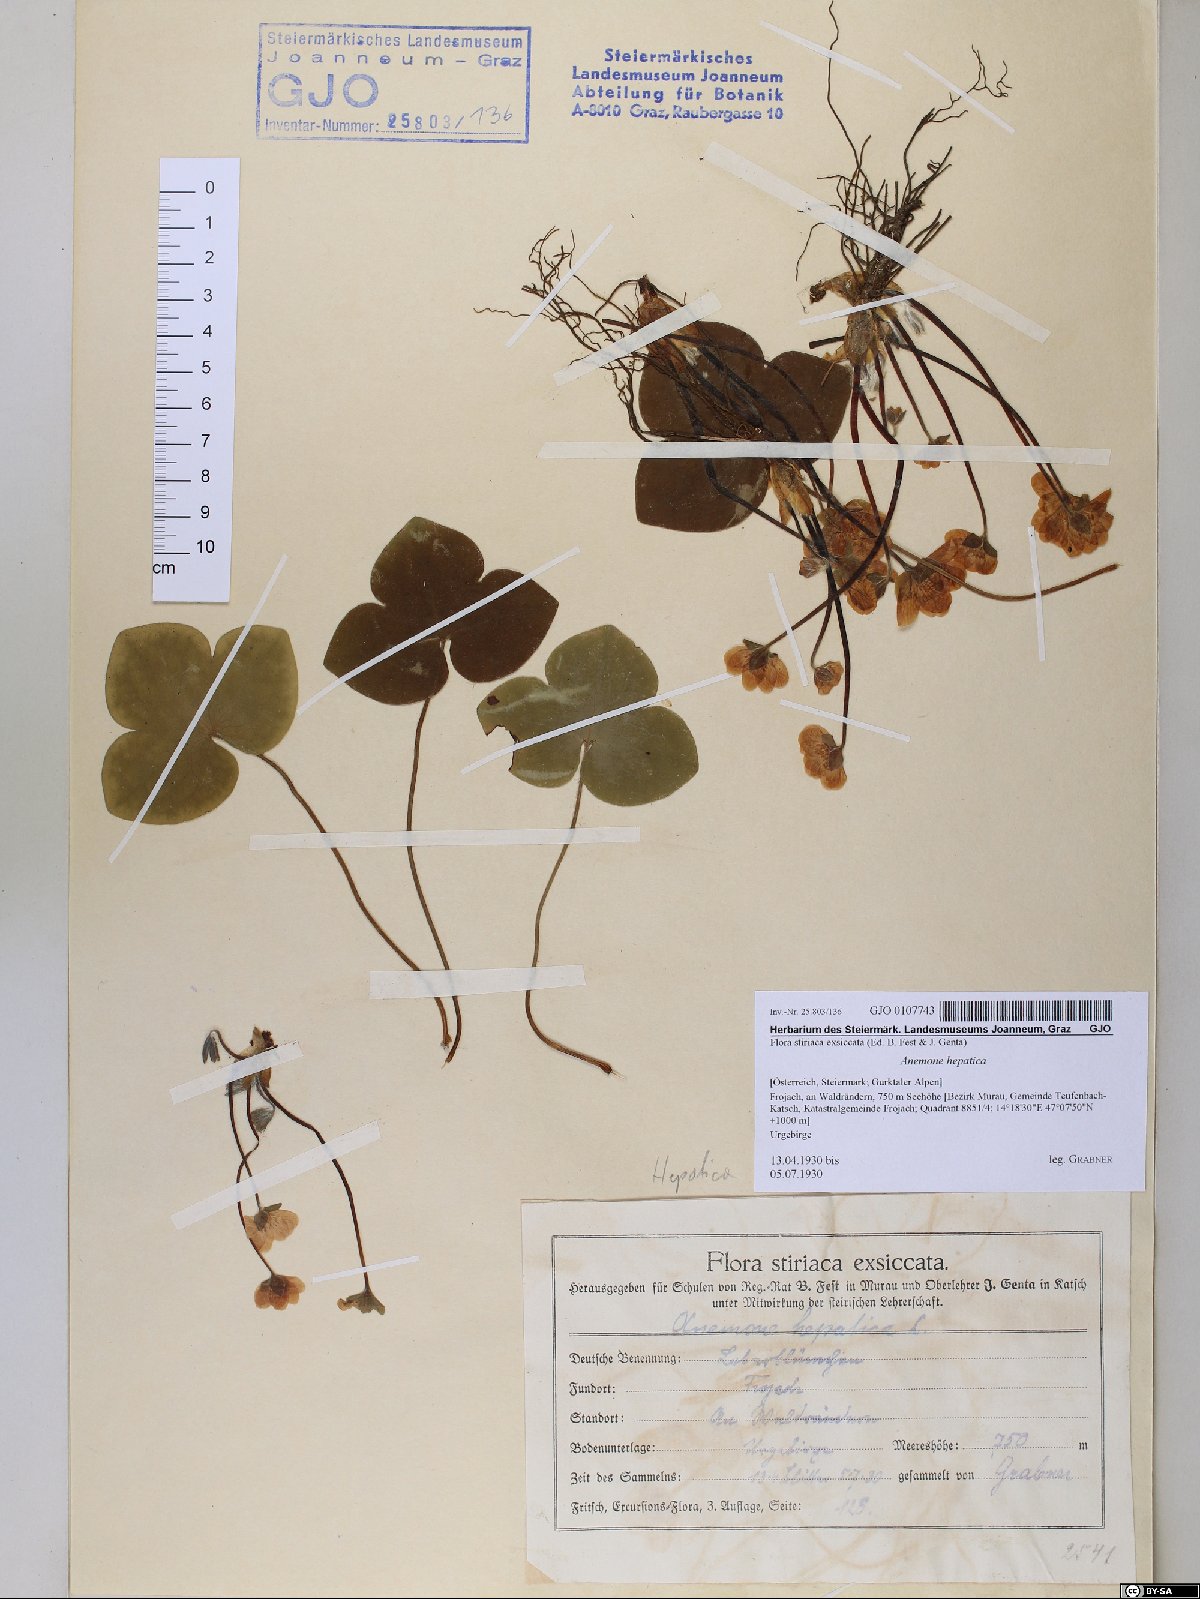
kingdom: Plantae
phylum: Tracheophyta
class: Magnoliopsida
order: Ranunculales
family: Ranunculaceae
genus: Hepatica
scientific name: Hepatica nobilis
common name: Liverleaf
